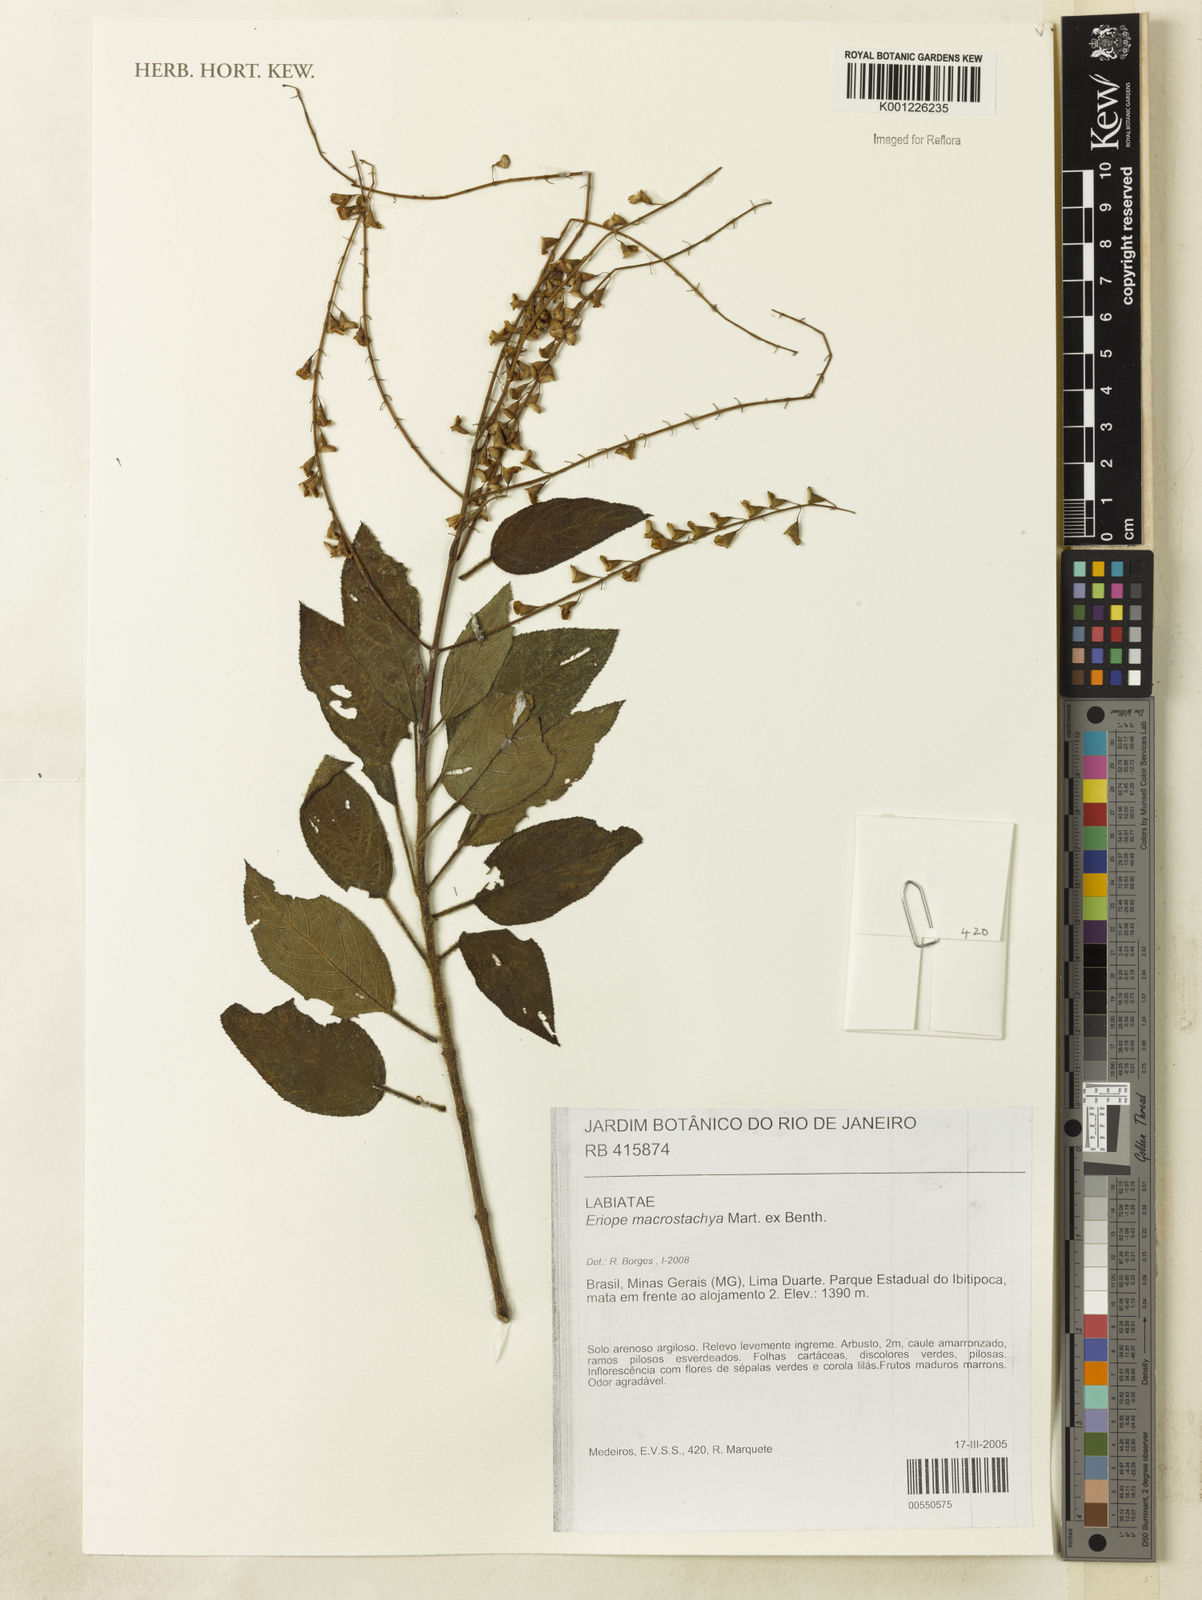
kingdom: Plantae
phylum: Tracheophyta
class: Magnoliopsida
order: Lamiales
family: Lamiaceae
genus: Eriope
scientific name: Eriope macrostachya
